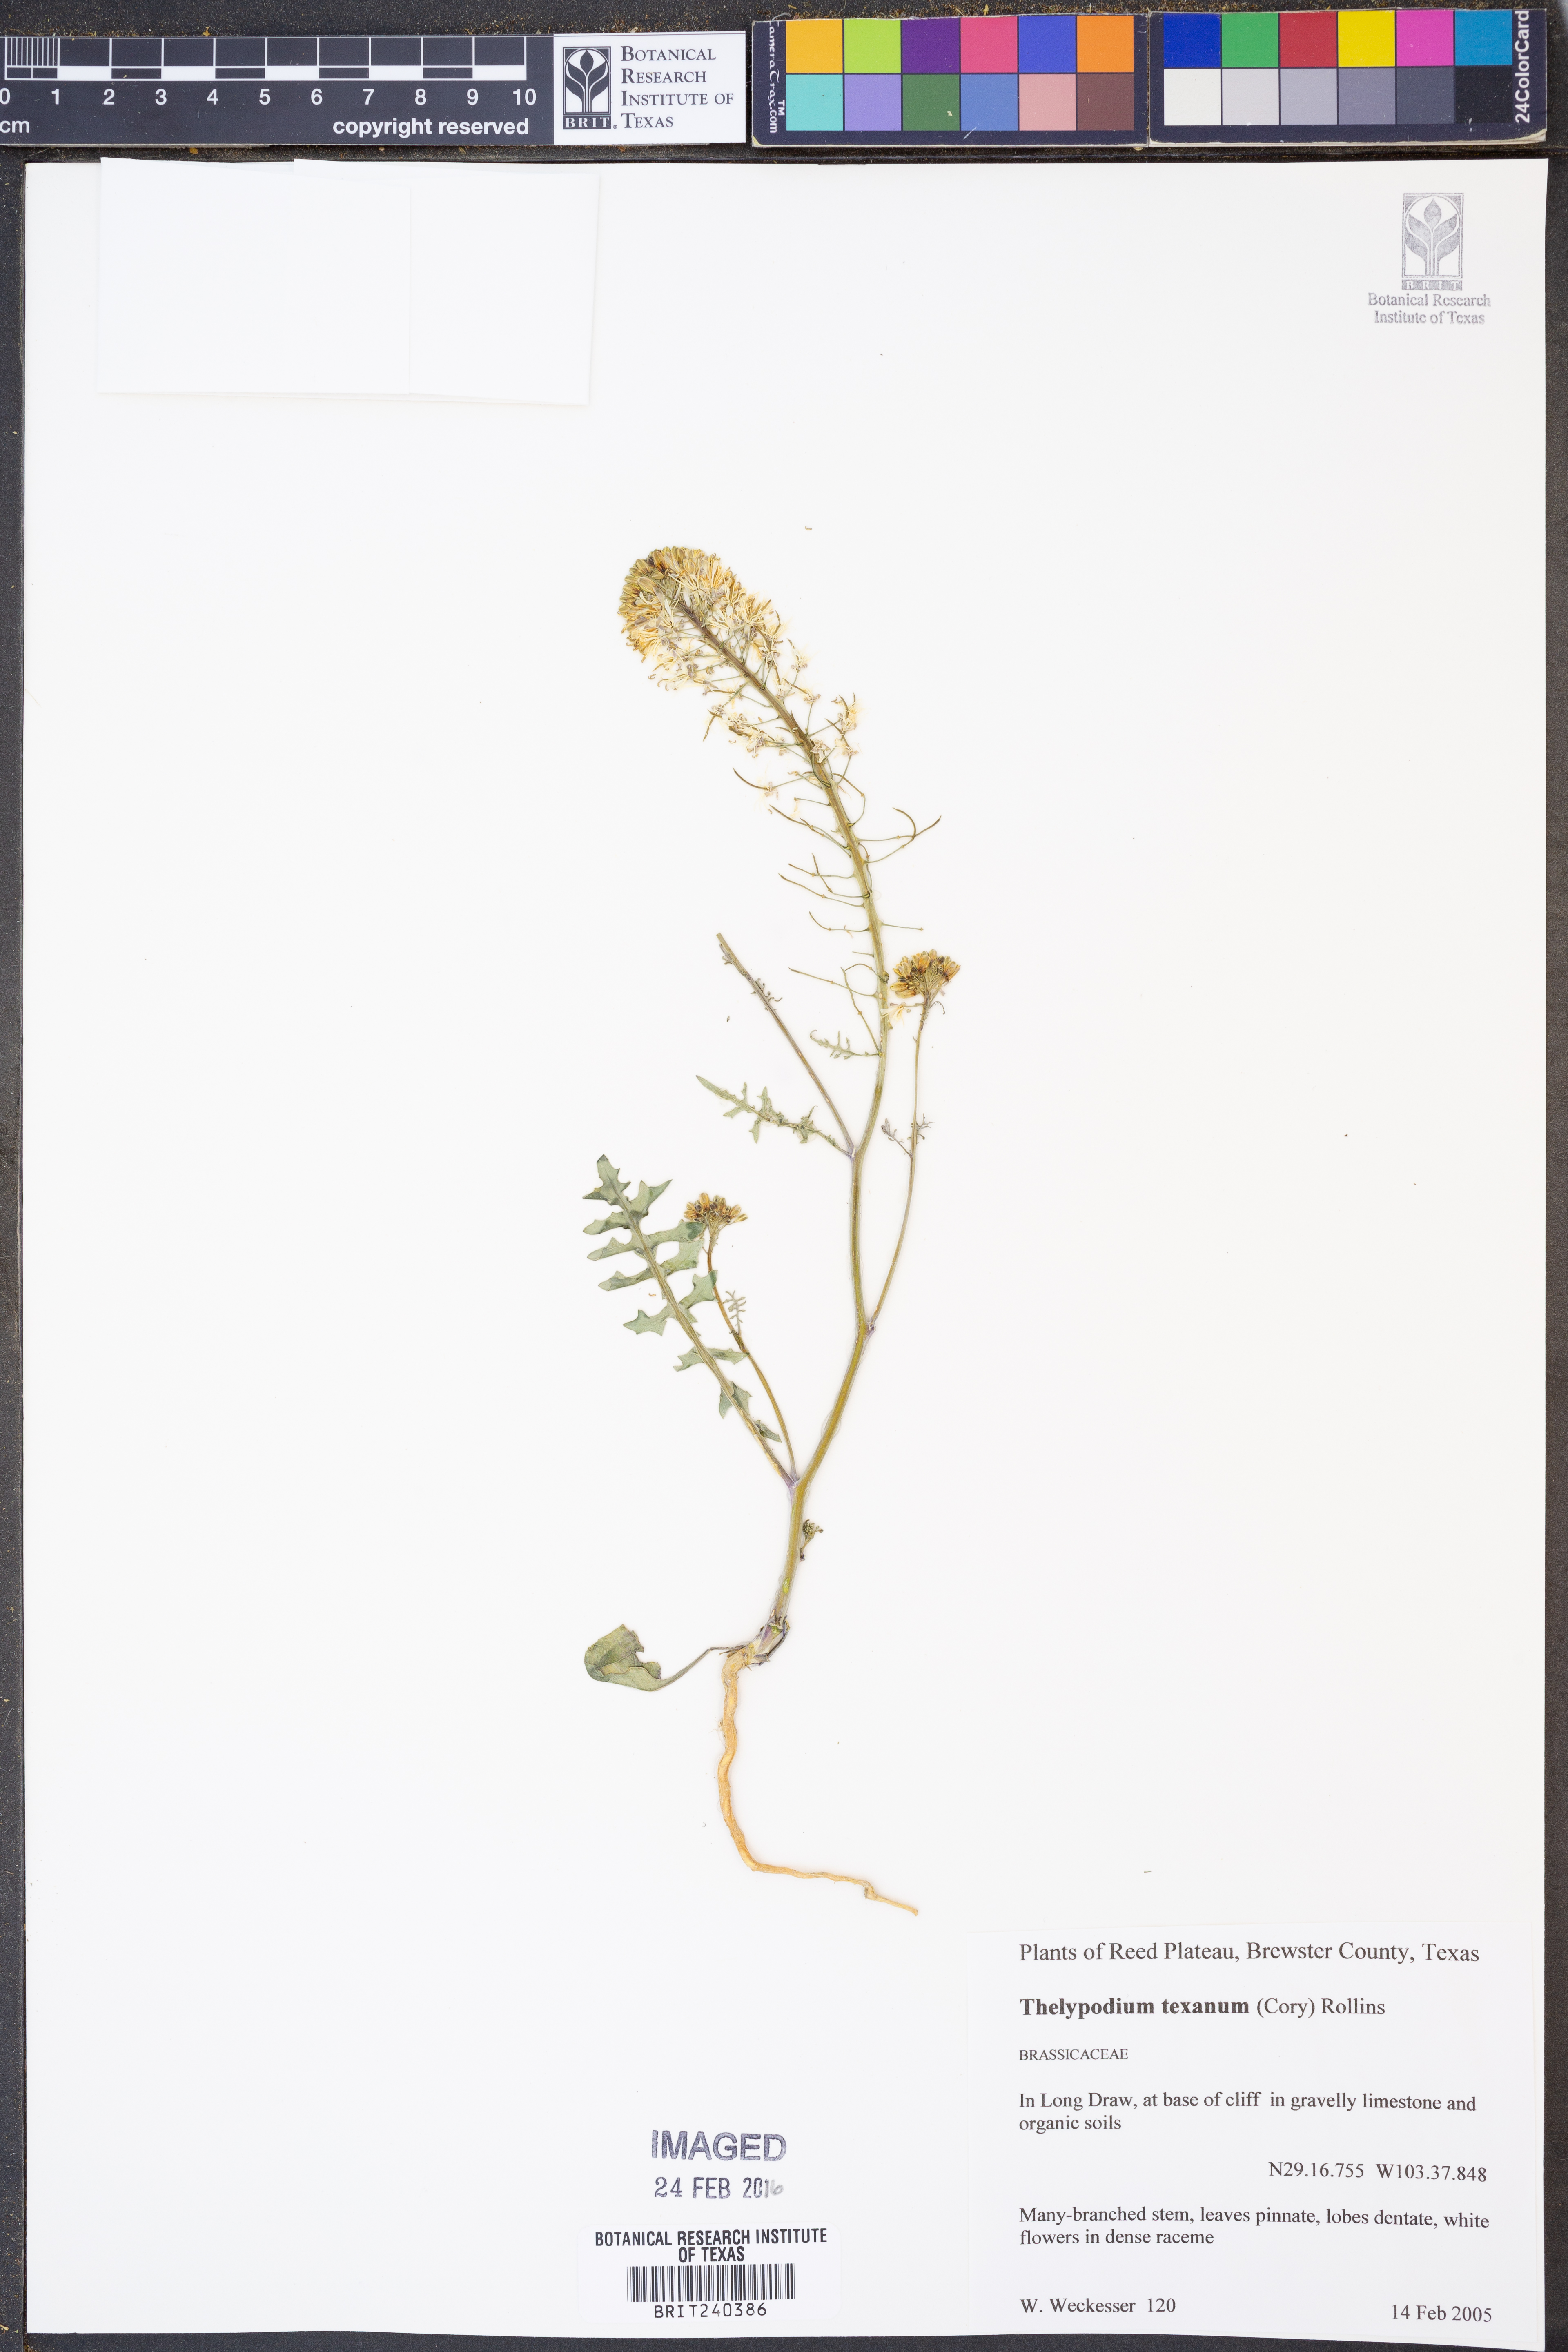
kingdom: Plantae
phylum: Tracheophyta
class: Magnoliopsida
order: Brassicales
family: Brassicaceae
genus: Thelypodium
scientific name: Thelypodium texanum
